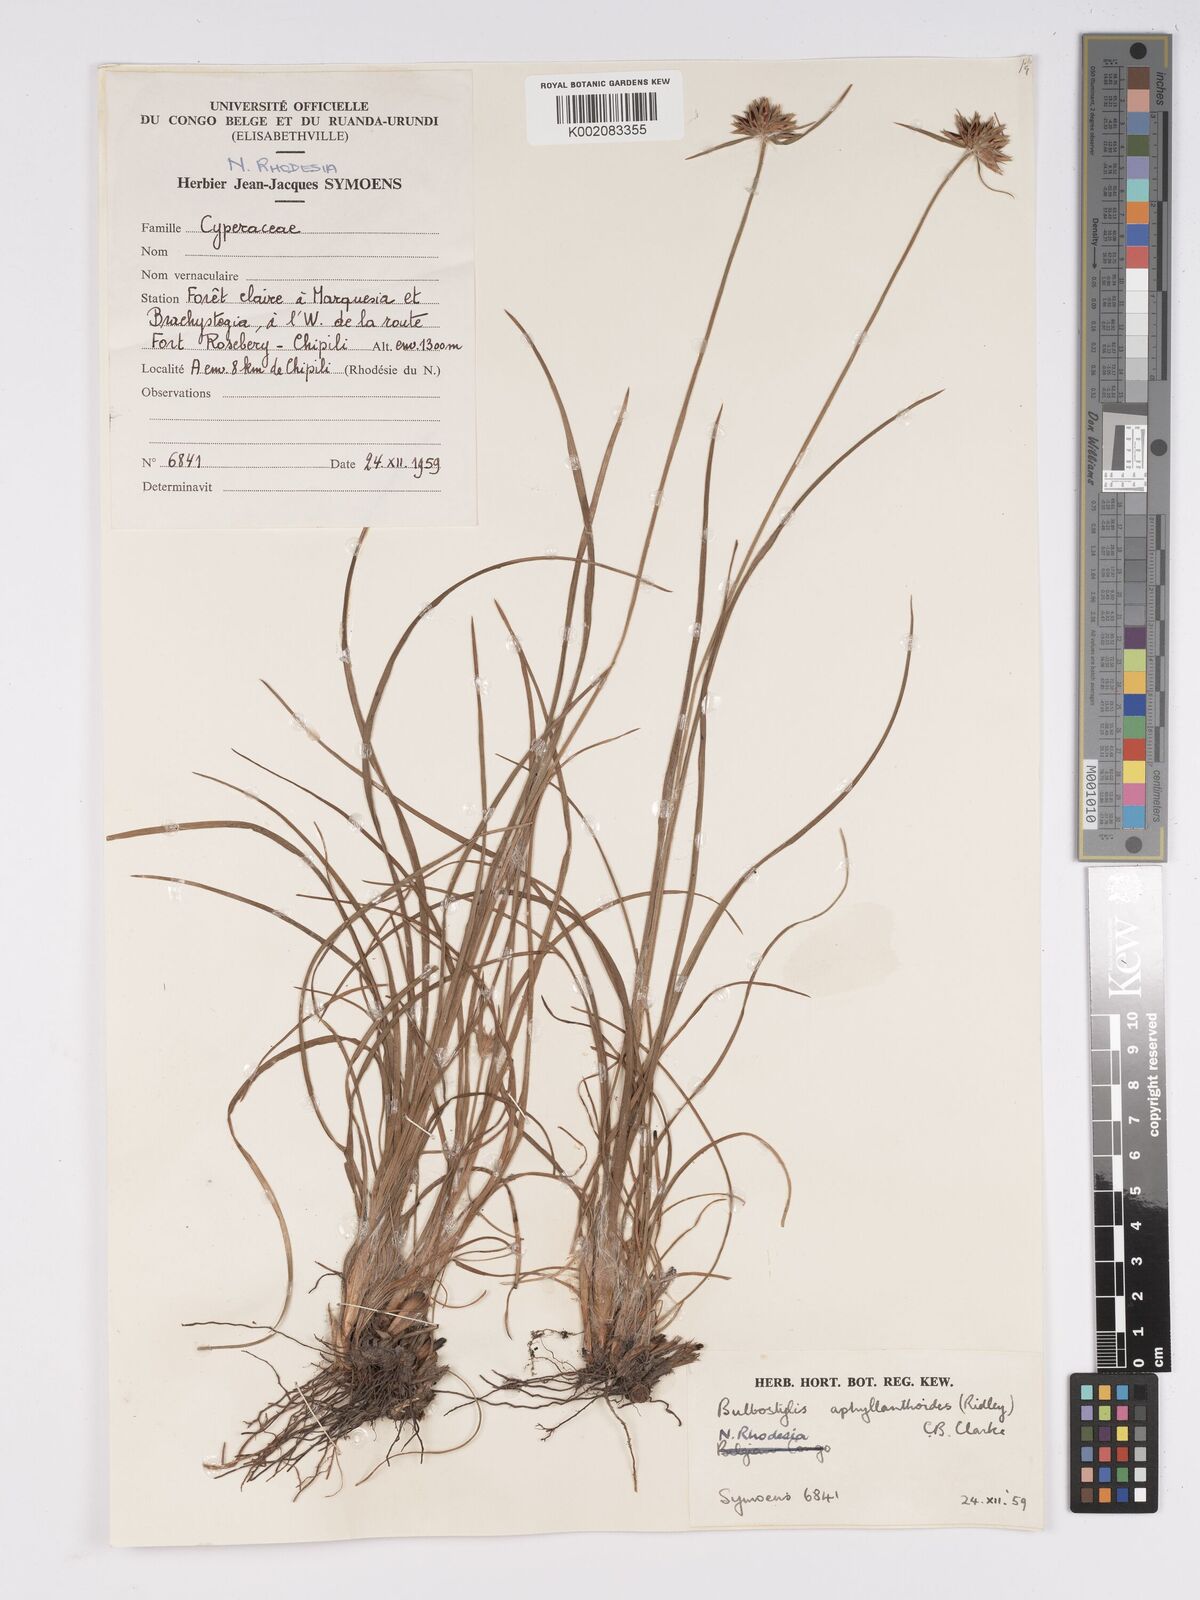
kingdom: Plantae
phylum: Tracheophyta
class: Liliopsida
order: Poales
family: Cyperaceae
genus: Bulbostylis
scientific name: Bulbostylis pilosa
